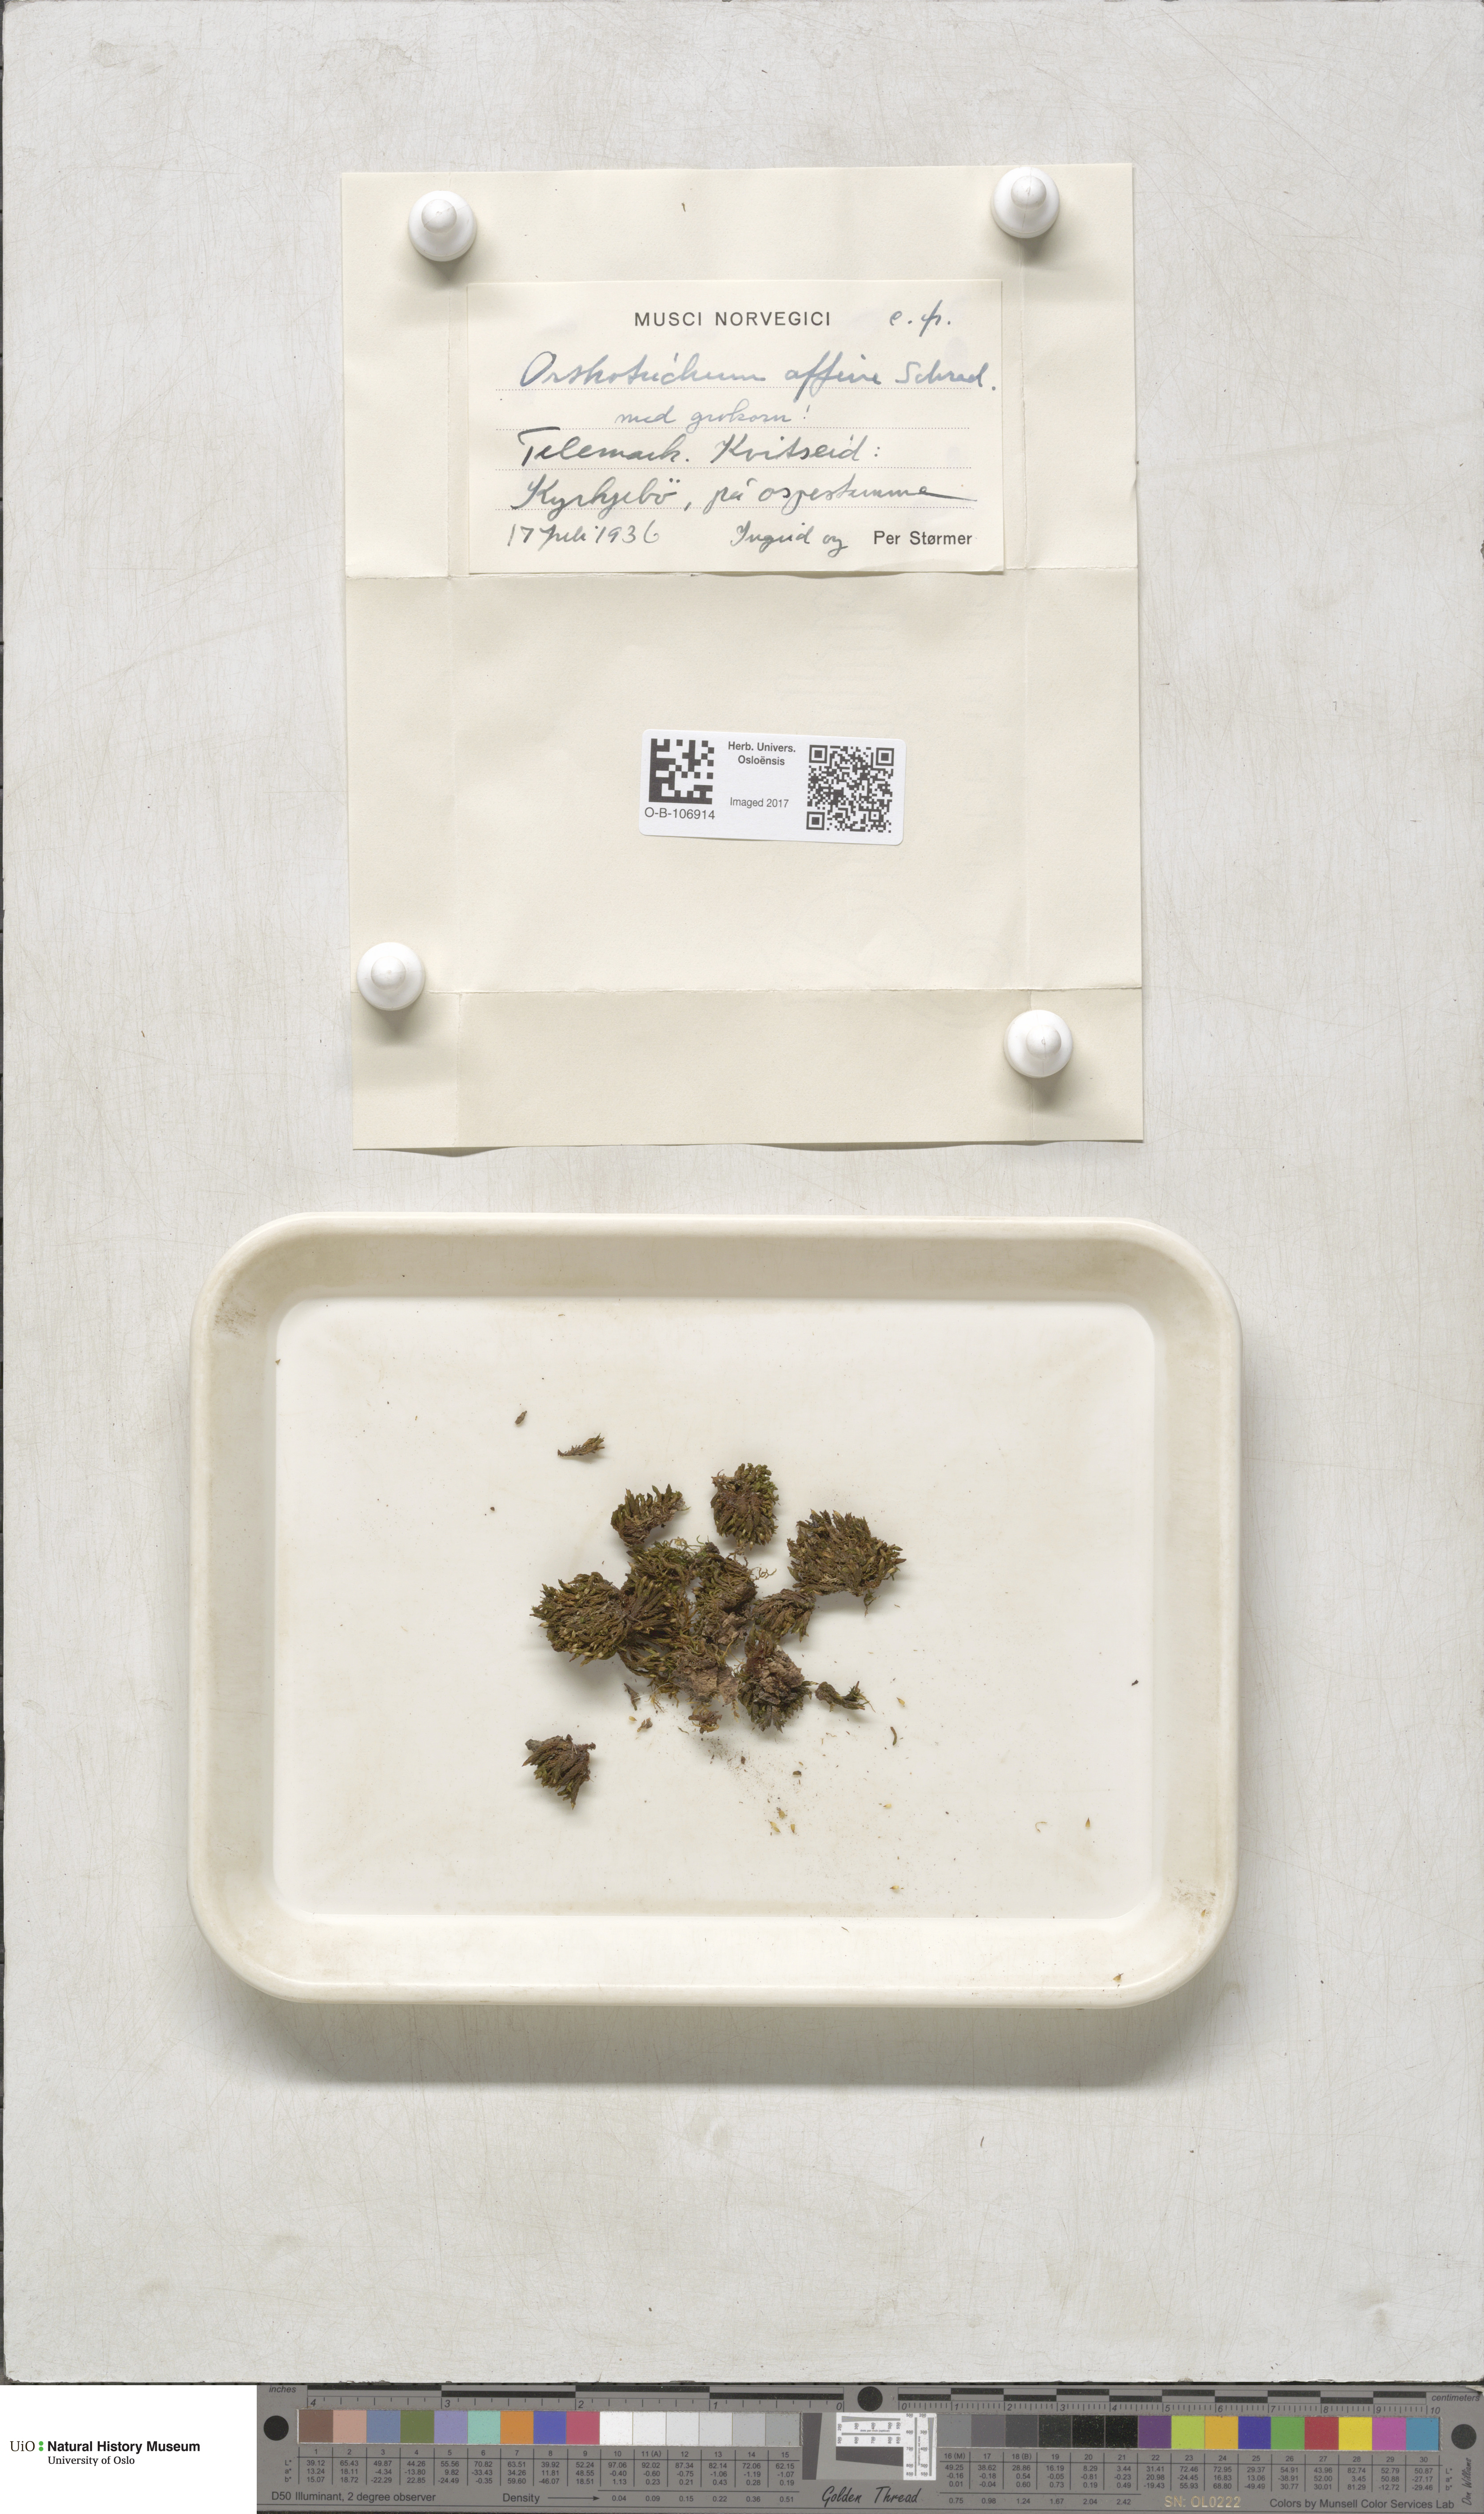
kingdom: Plantae
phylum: Bryophyta
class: Bryopsida
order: Orthotrichales
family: Orthotrichaceae
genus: Lewinskya
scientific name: Lewinskya affinis
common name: Wood bristle-moss
